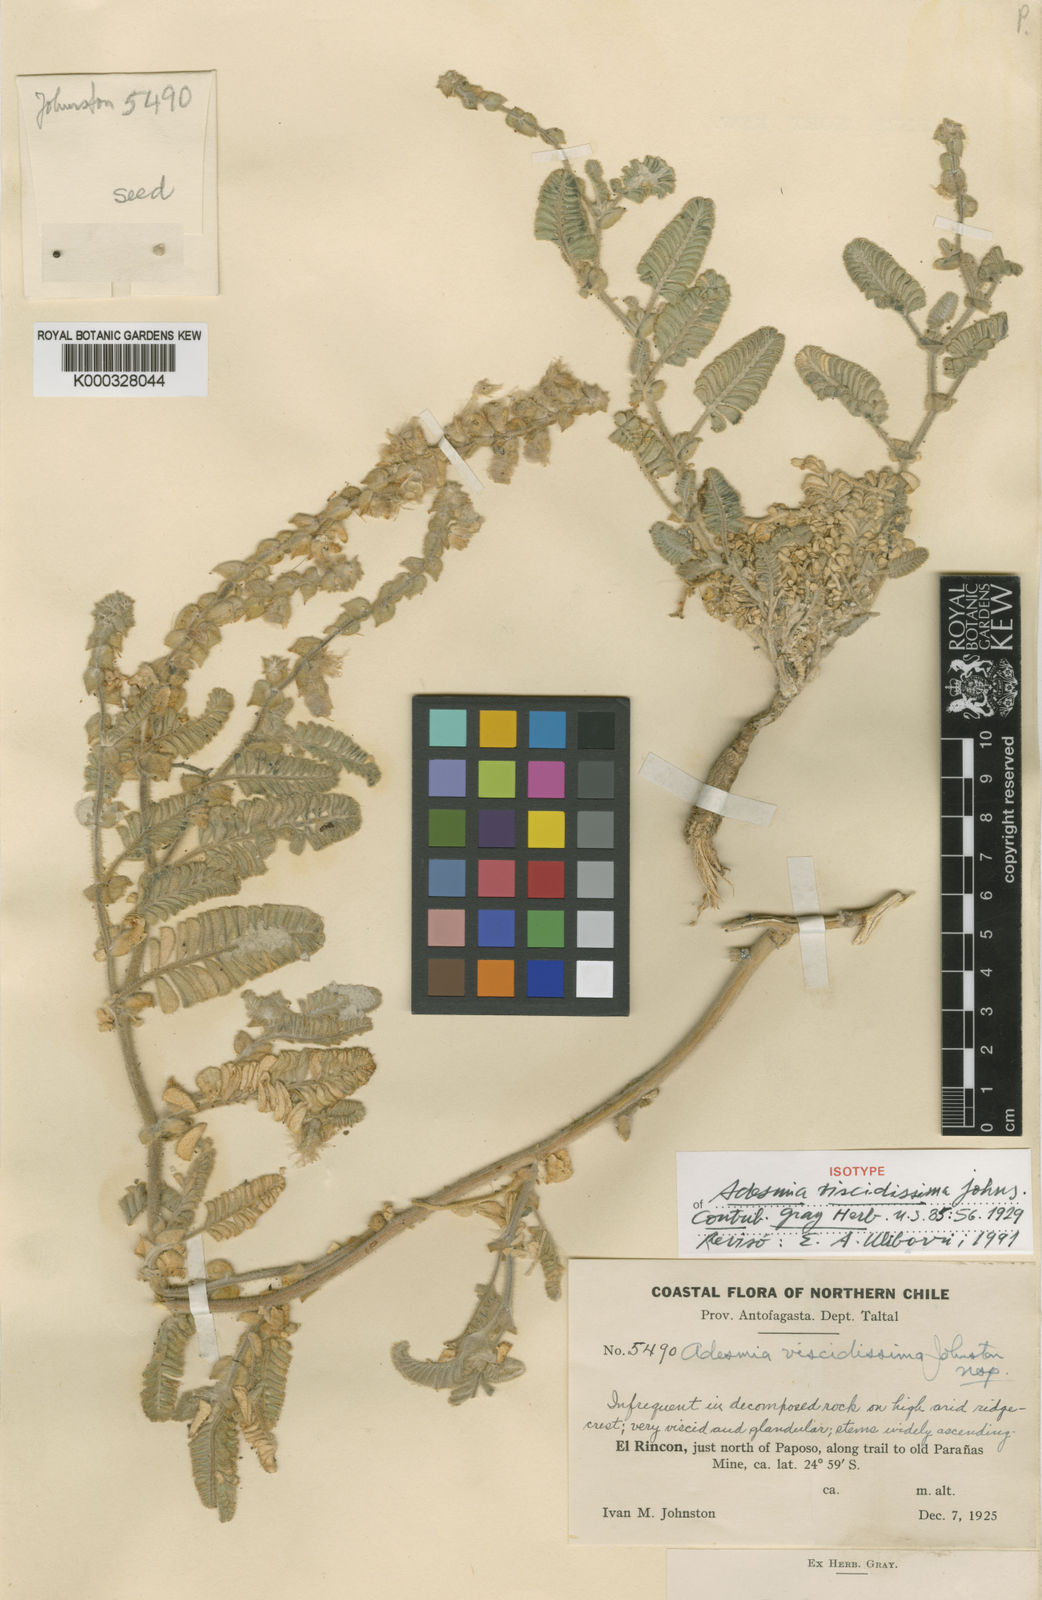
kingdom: Plantae
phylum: Tracheophyta
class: Magnoliopsida
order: Fabales
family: Fabaceae
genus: Adesmia
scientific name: Adesmia viscidissima
